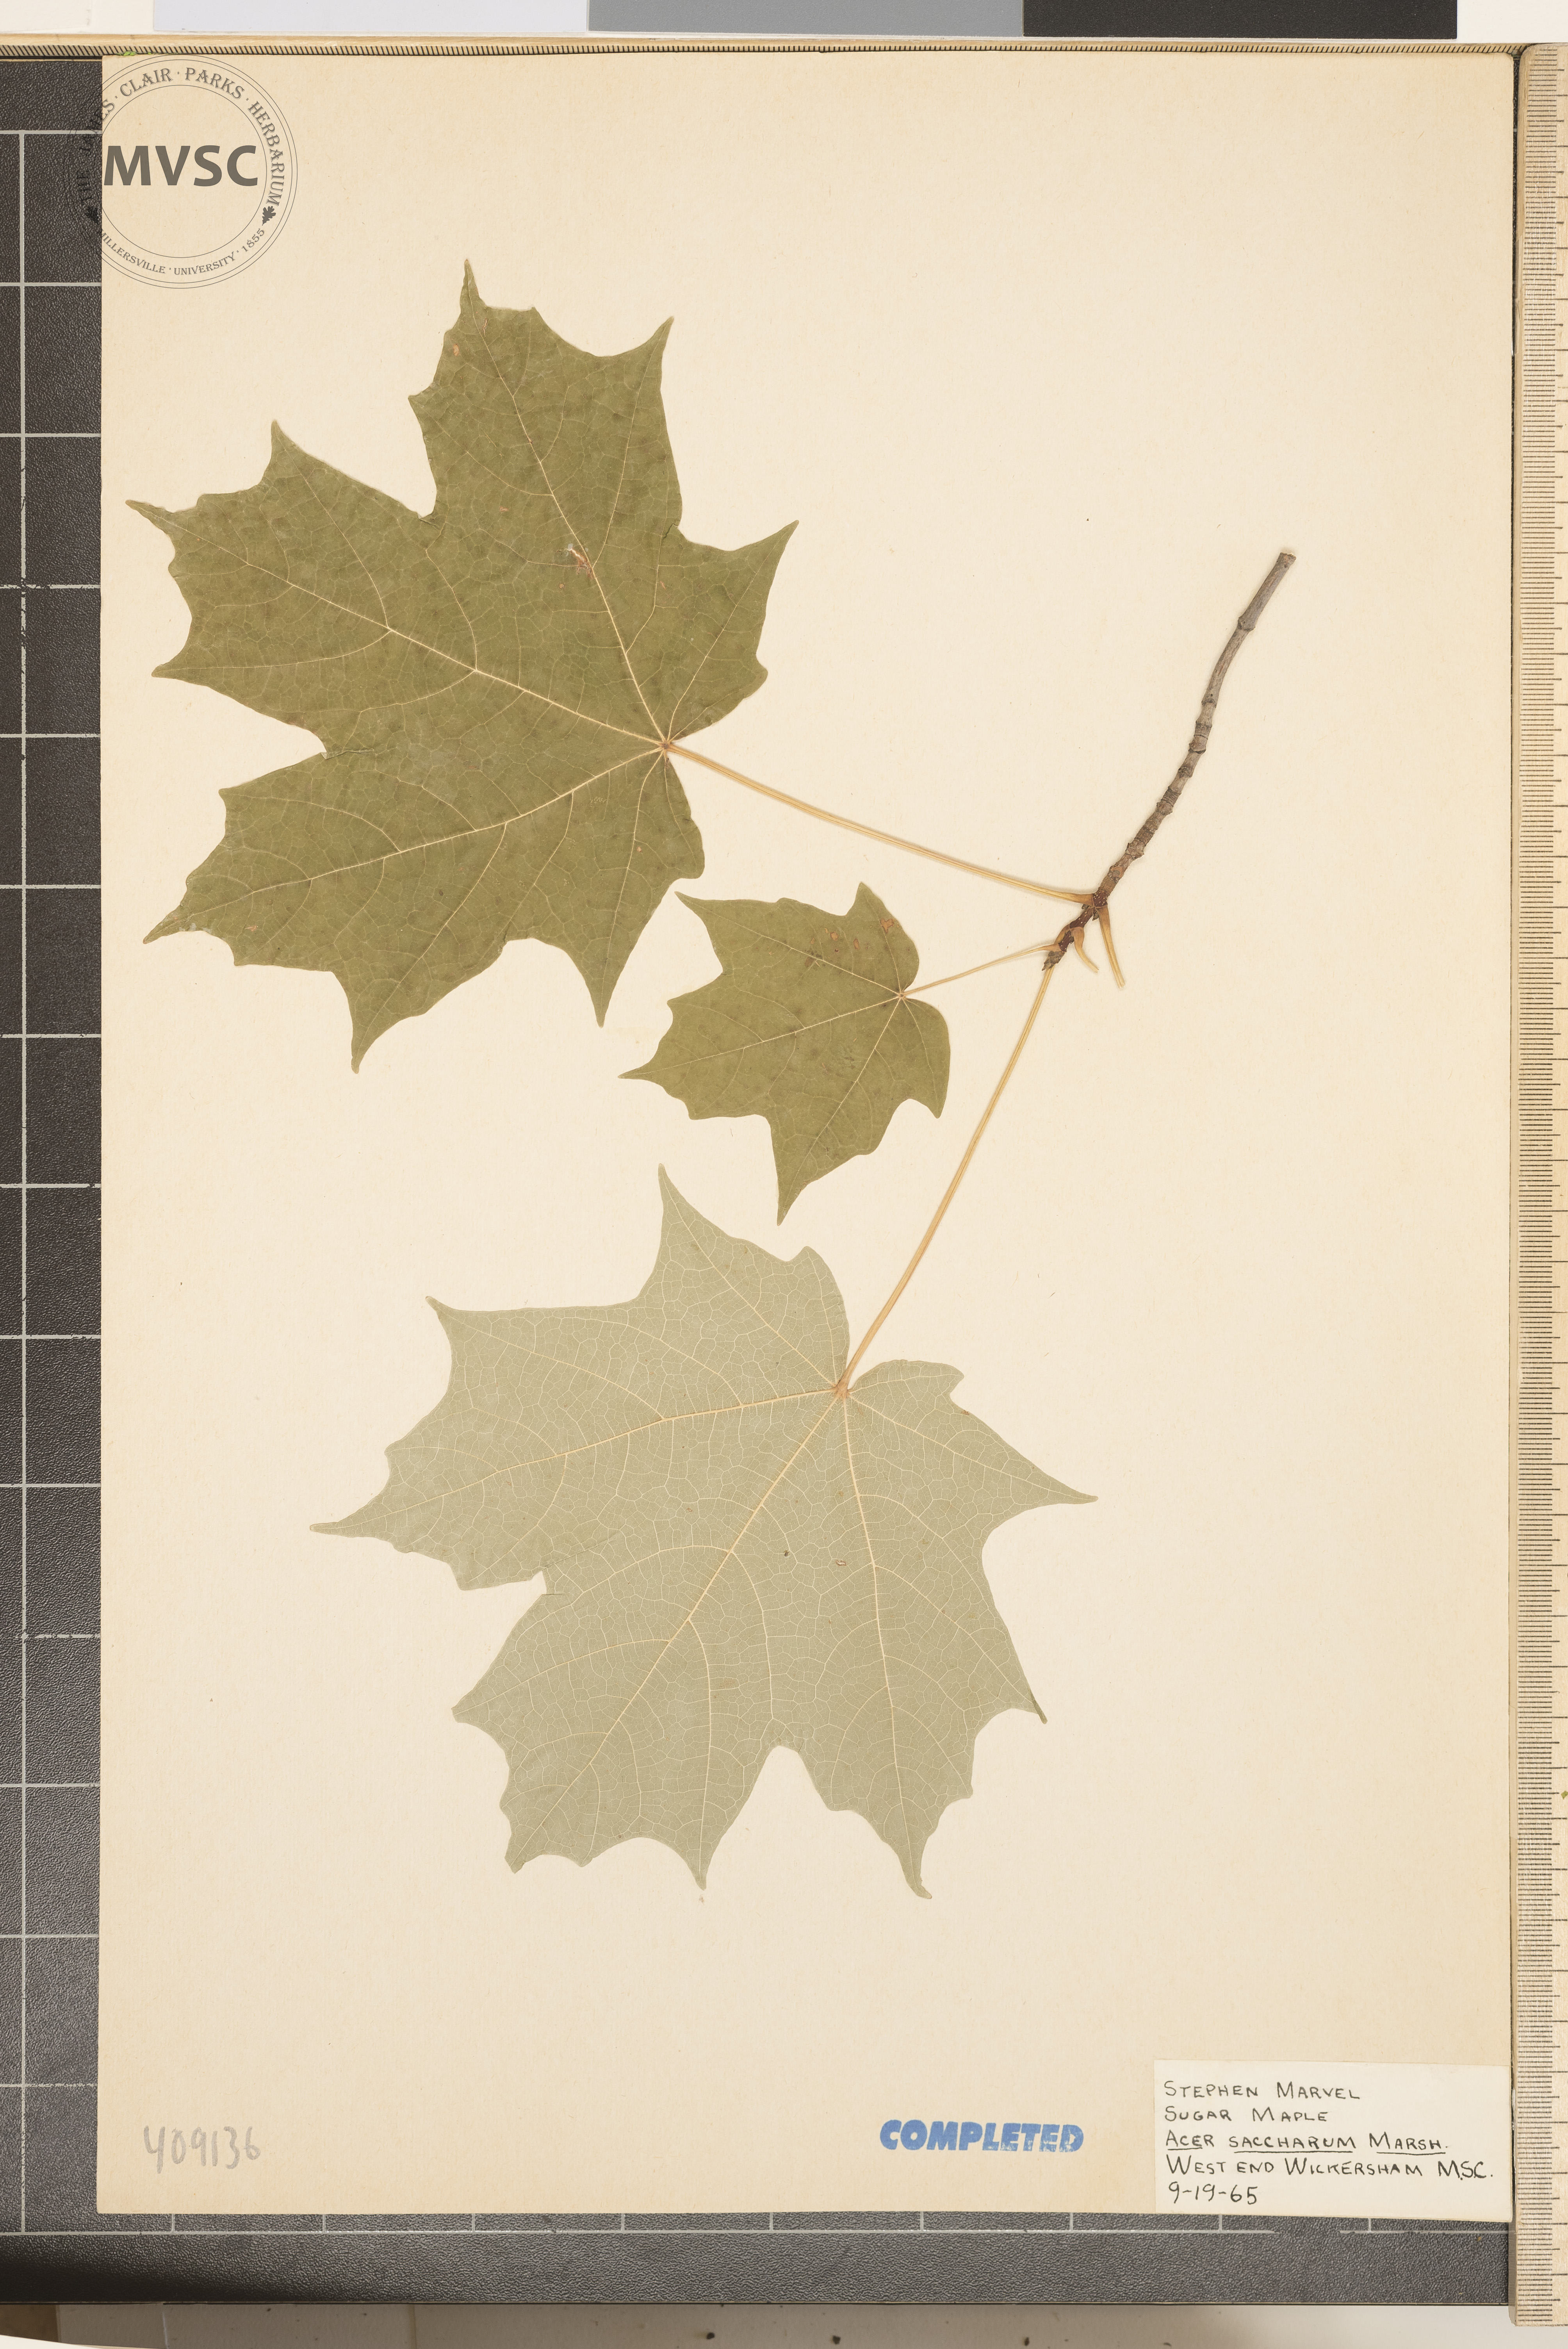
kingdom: Plantae
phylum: Tracheophyta
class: Magnoliopsida
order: Sapindales
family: Sapindaceae
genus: Acer
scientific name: Acer saccharum
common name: Sugar maple
